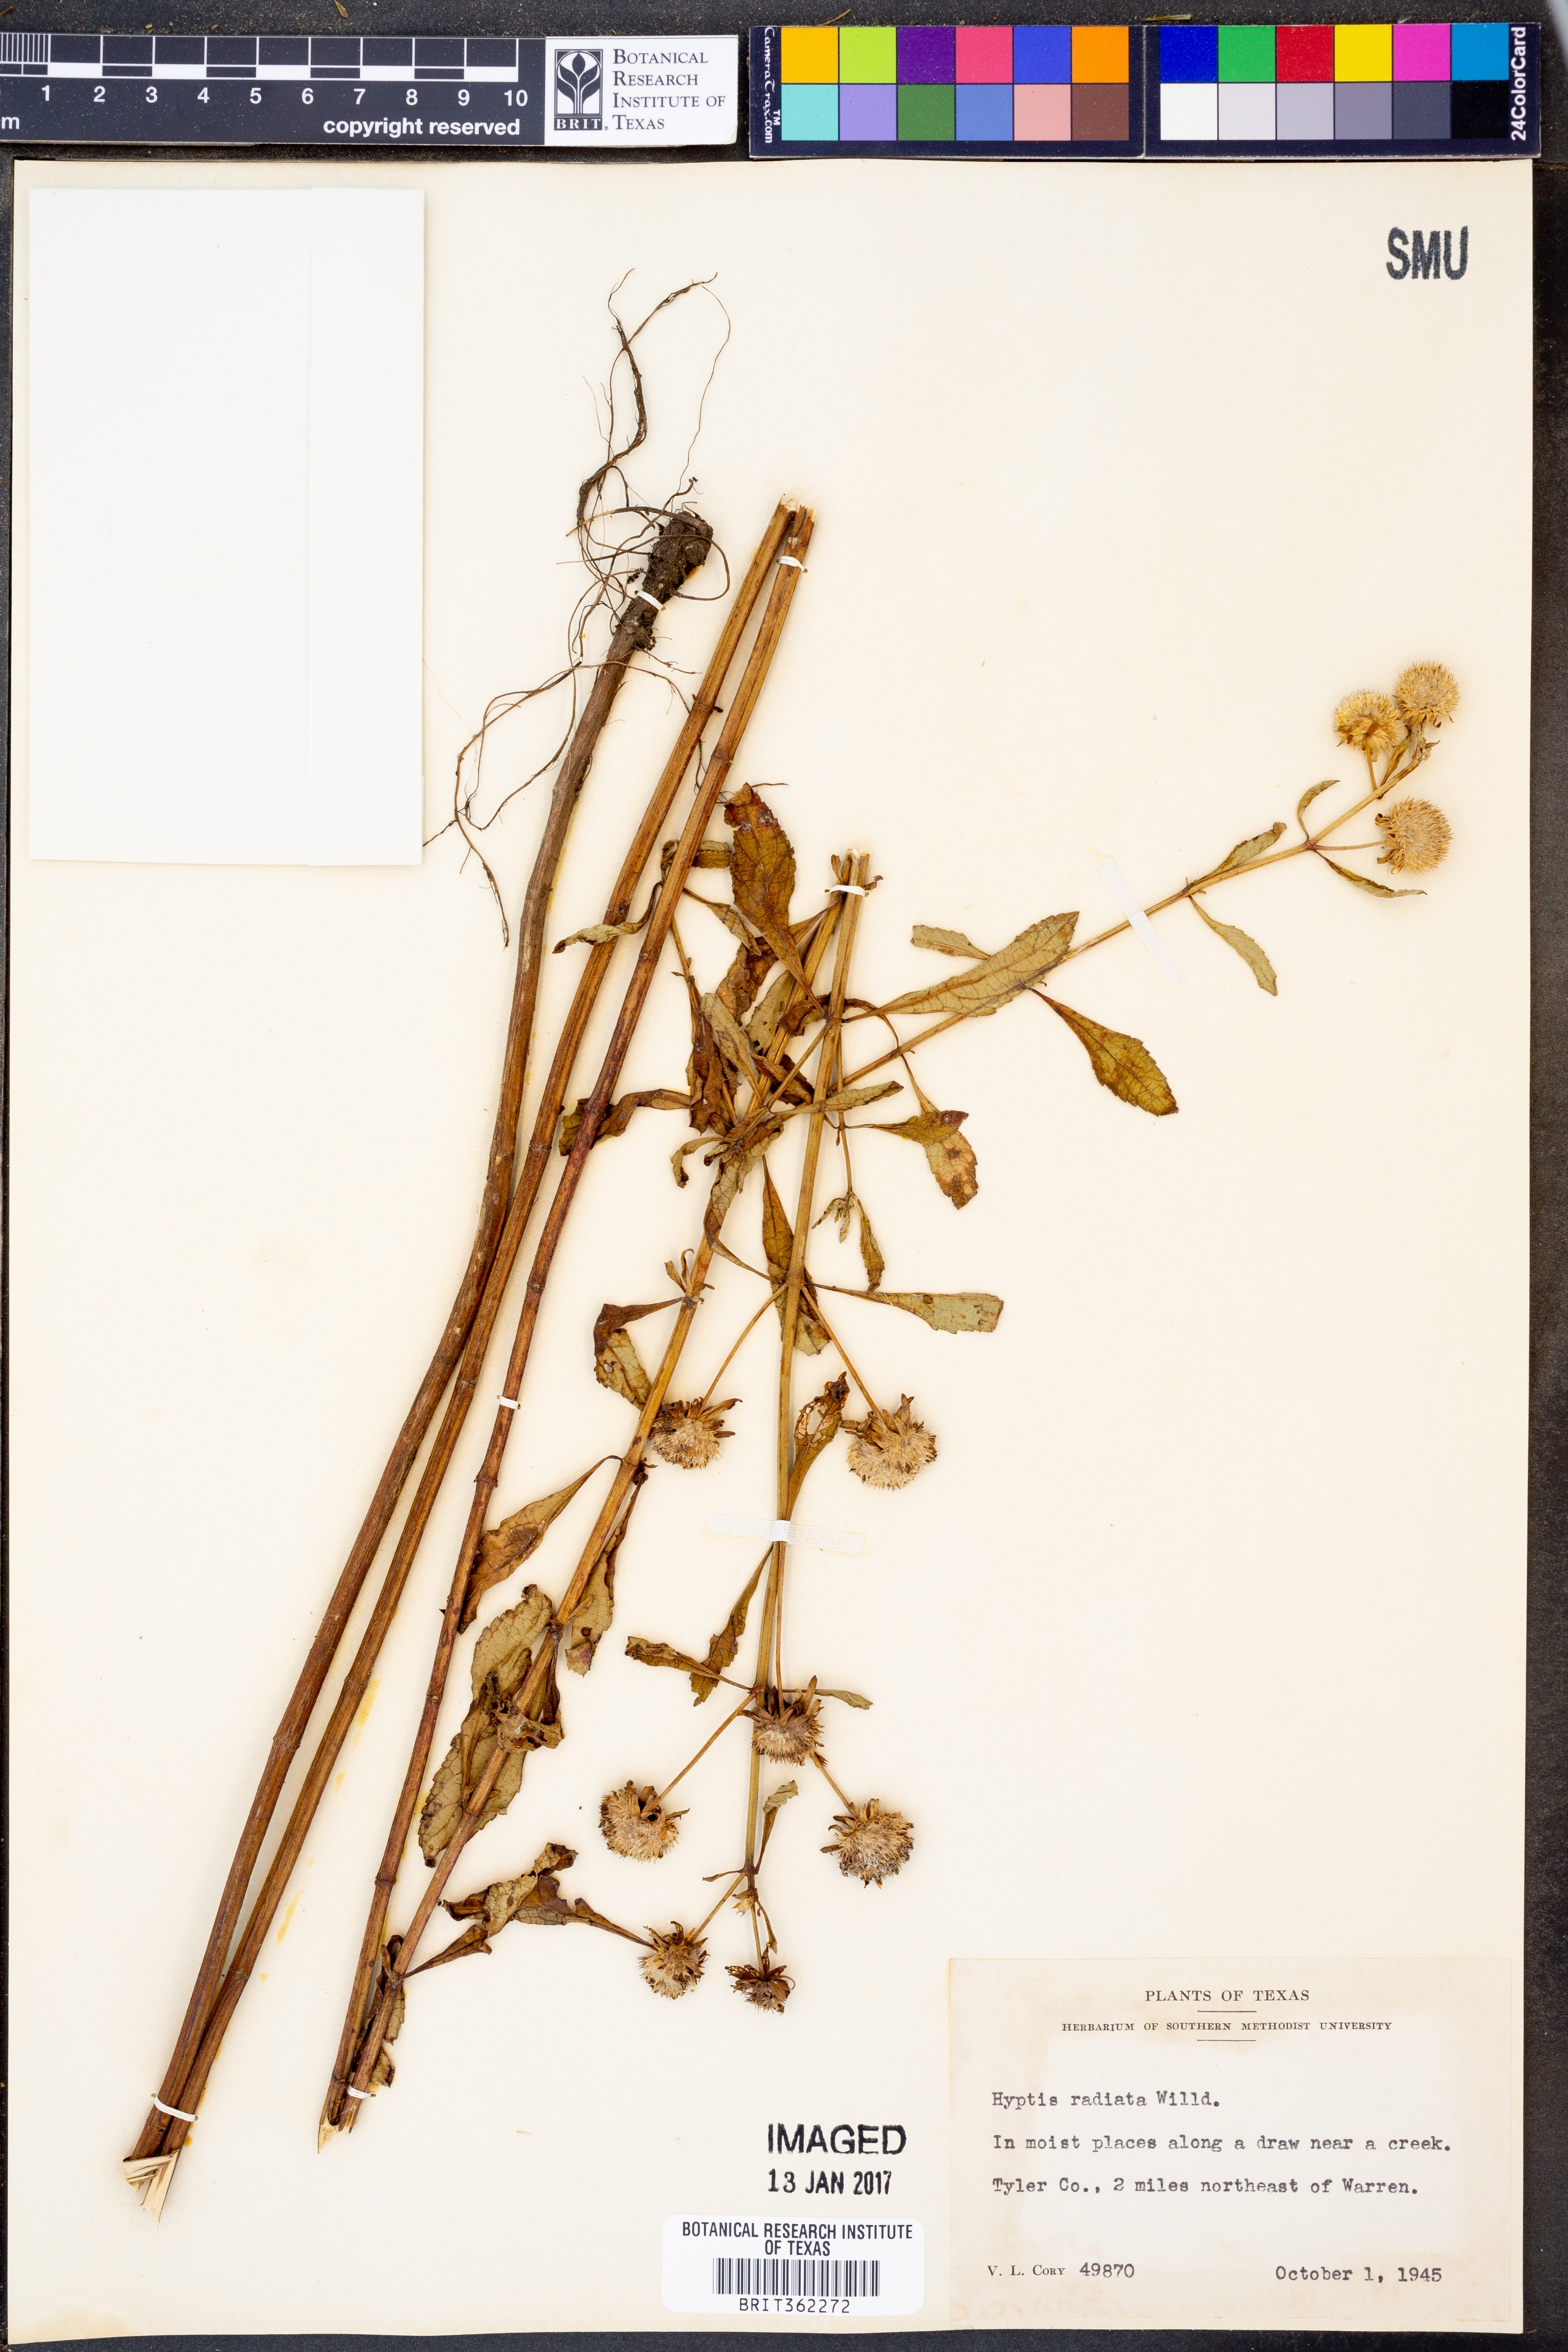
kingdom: Plantae
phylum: Tracheophyta
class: Magnoliopsida
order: Lamiales
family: Lamiaceae
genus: Hyptis
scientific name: Hyptis alata
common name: Cluster bush-mint
